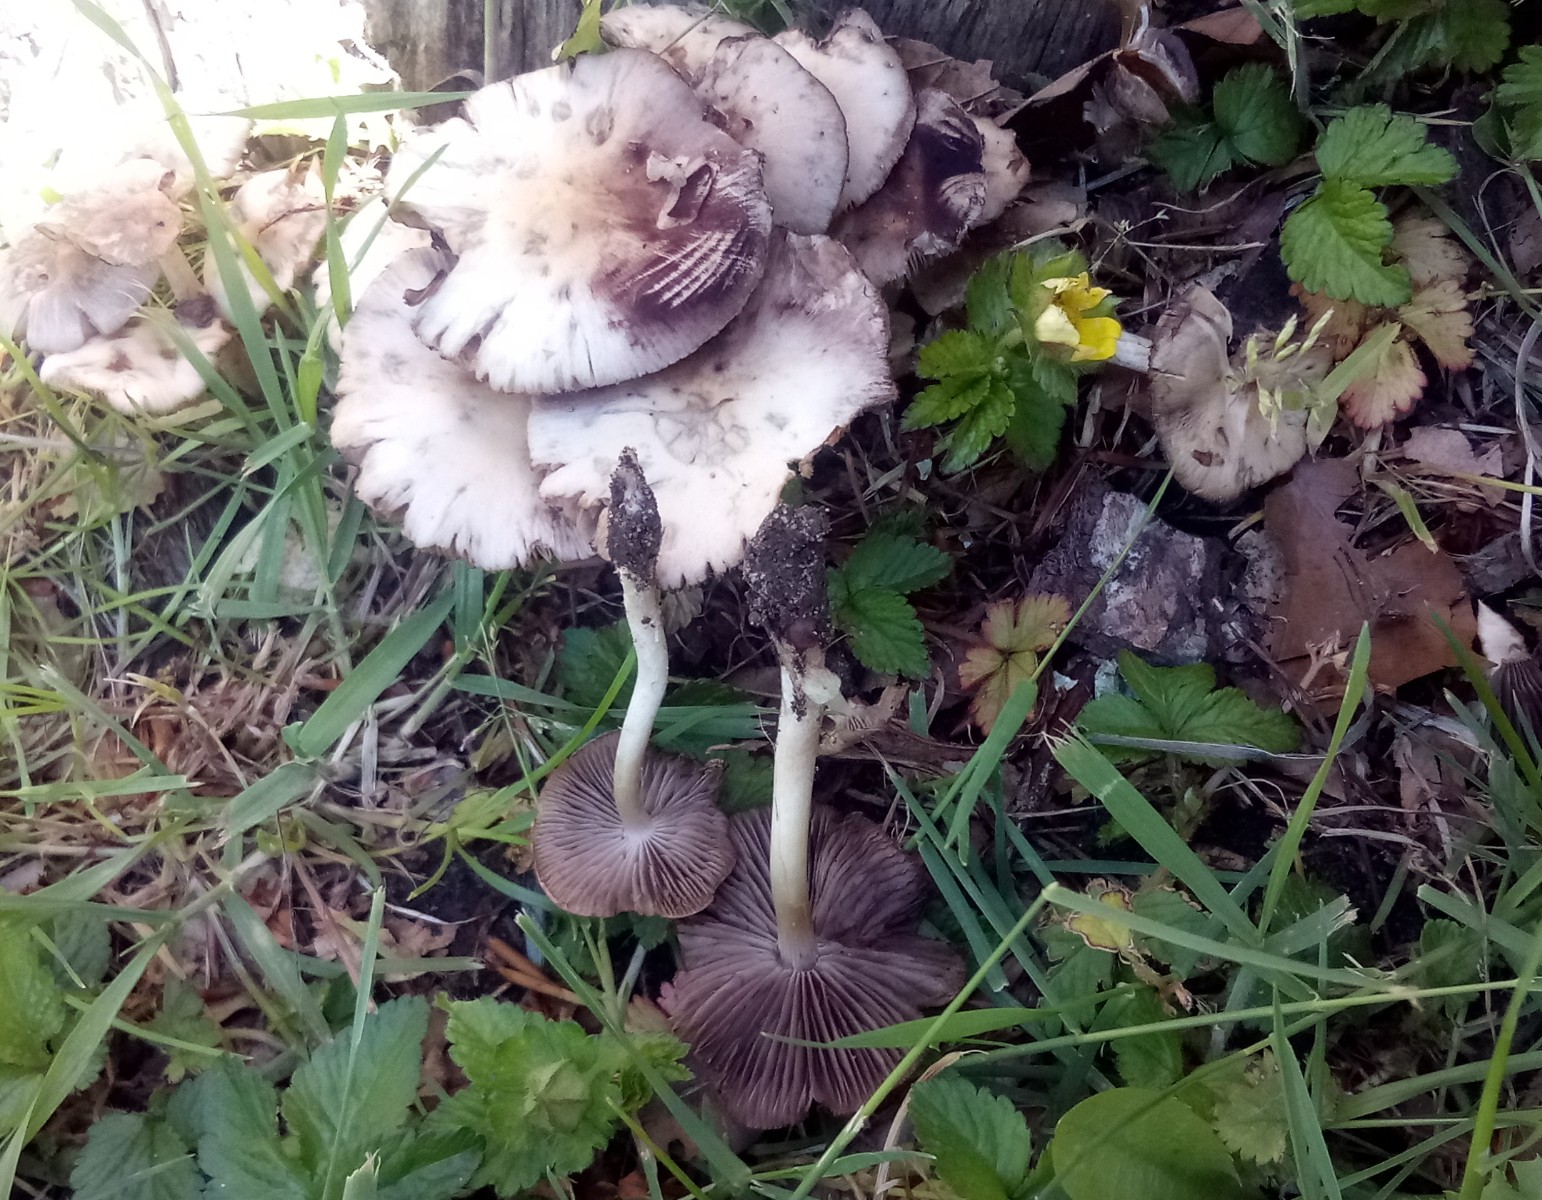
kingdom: Fungi
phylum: Basidiomycota
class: Agaricomycetes
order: Agaricales
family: Psathyrellaceae
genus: Psathyrella
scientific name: Psathyrella spadiceogrisea
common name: gråbrun mørkhat
